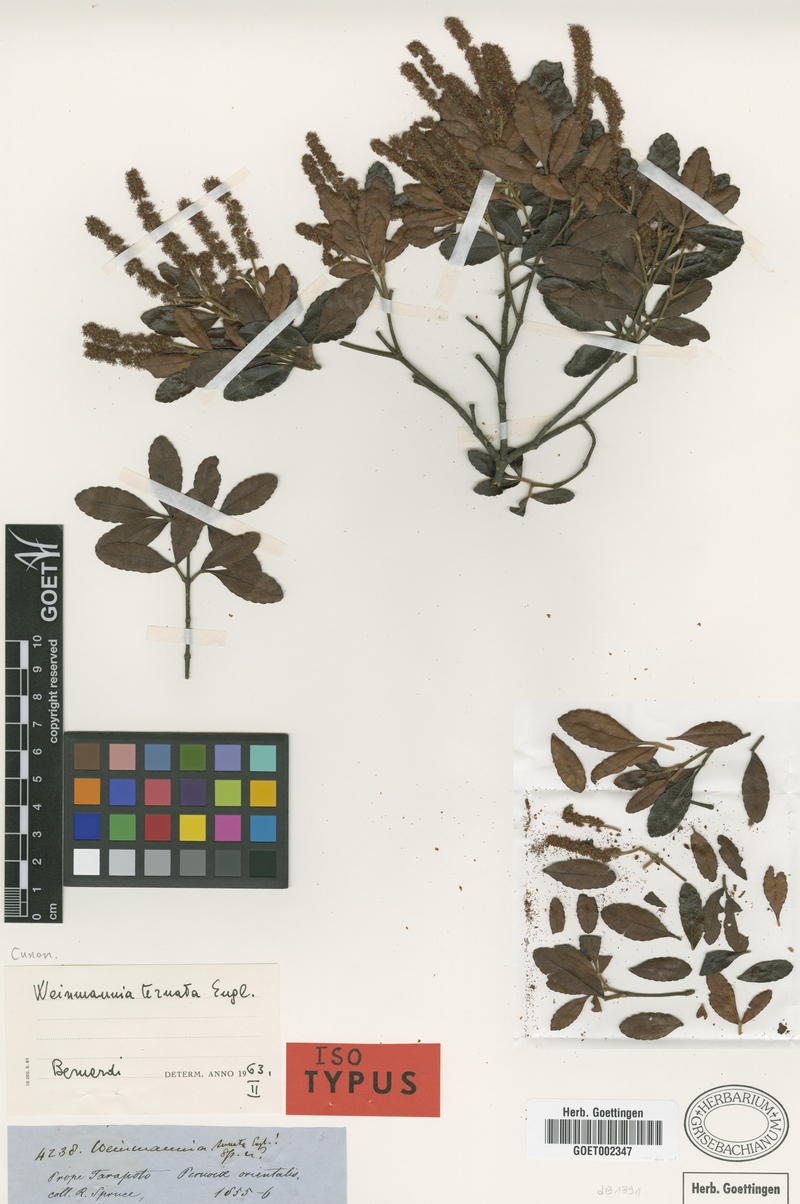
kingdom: Plantae
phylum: Tracheophyta
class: Magnoliopsida
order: Oxalidales
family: Cunoniaceae
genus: Weinmannia
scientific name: Weinmannia ternata
